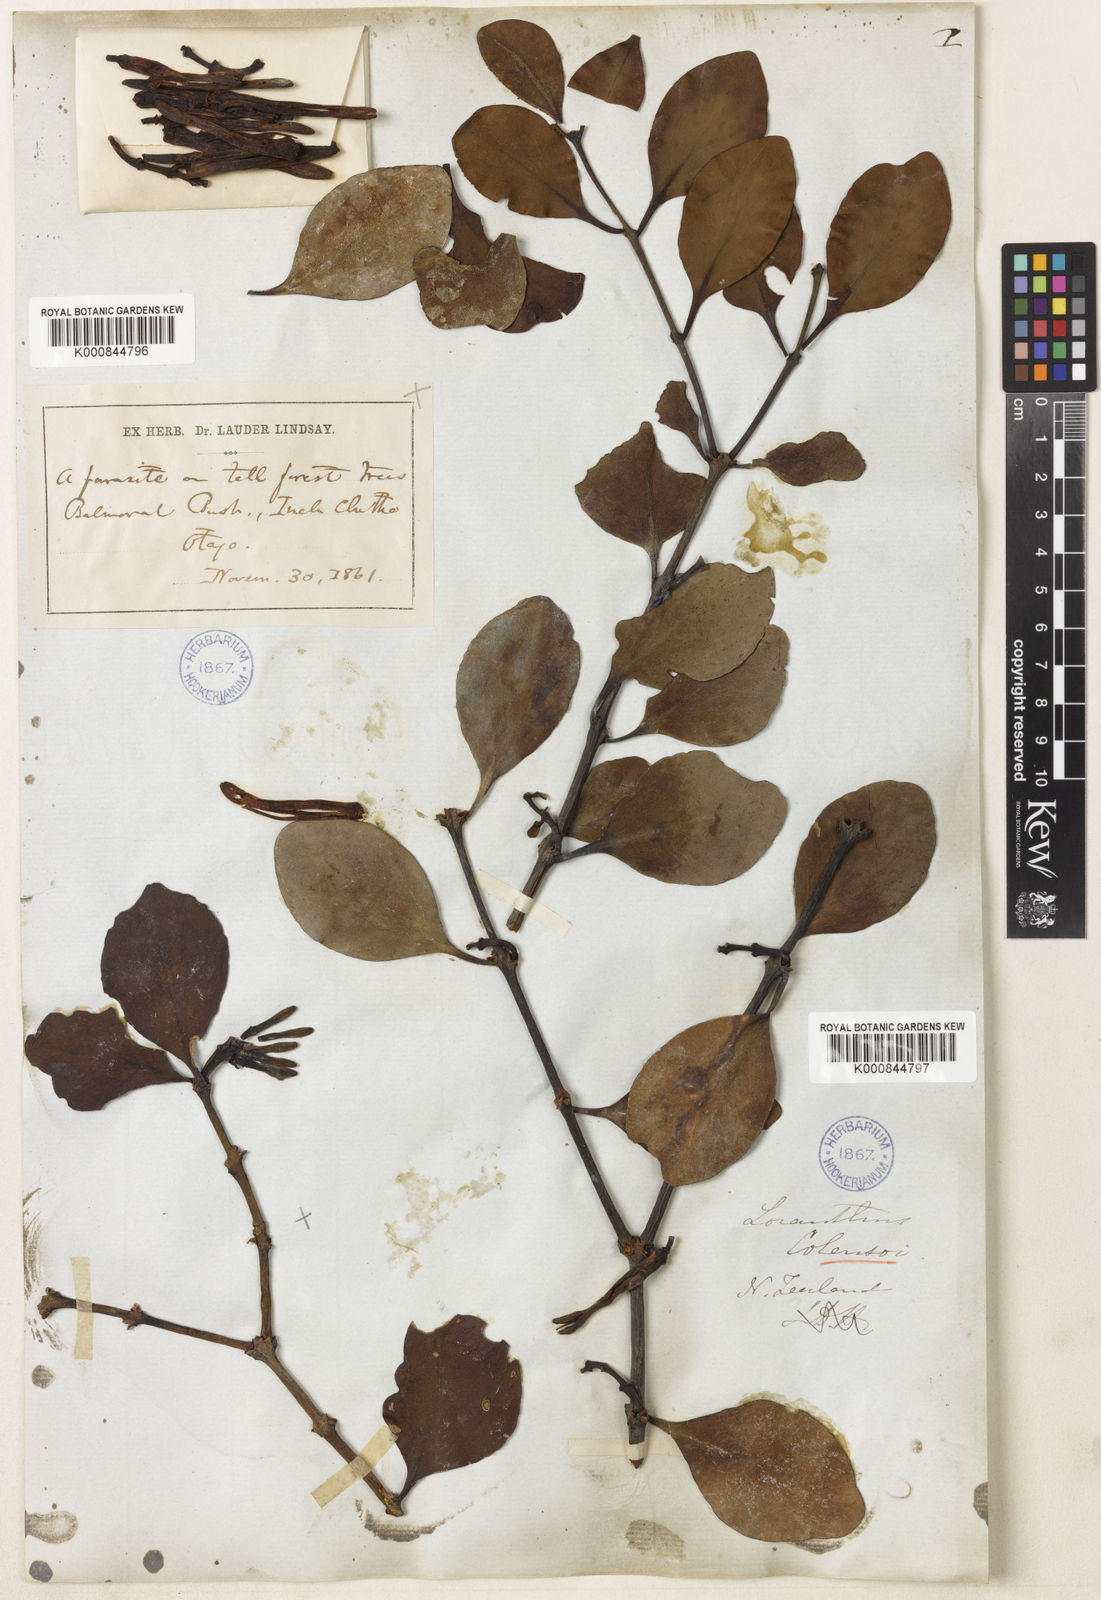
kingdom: Plantae
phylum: Tracheophyta
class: Magnoliopsida
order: Santalales
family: Loranthaceae
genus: Peraxilla
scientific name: Peraxilla colensoi
